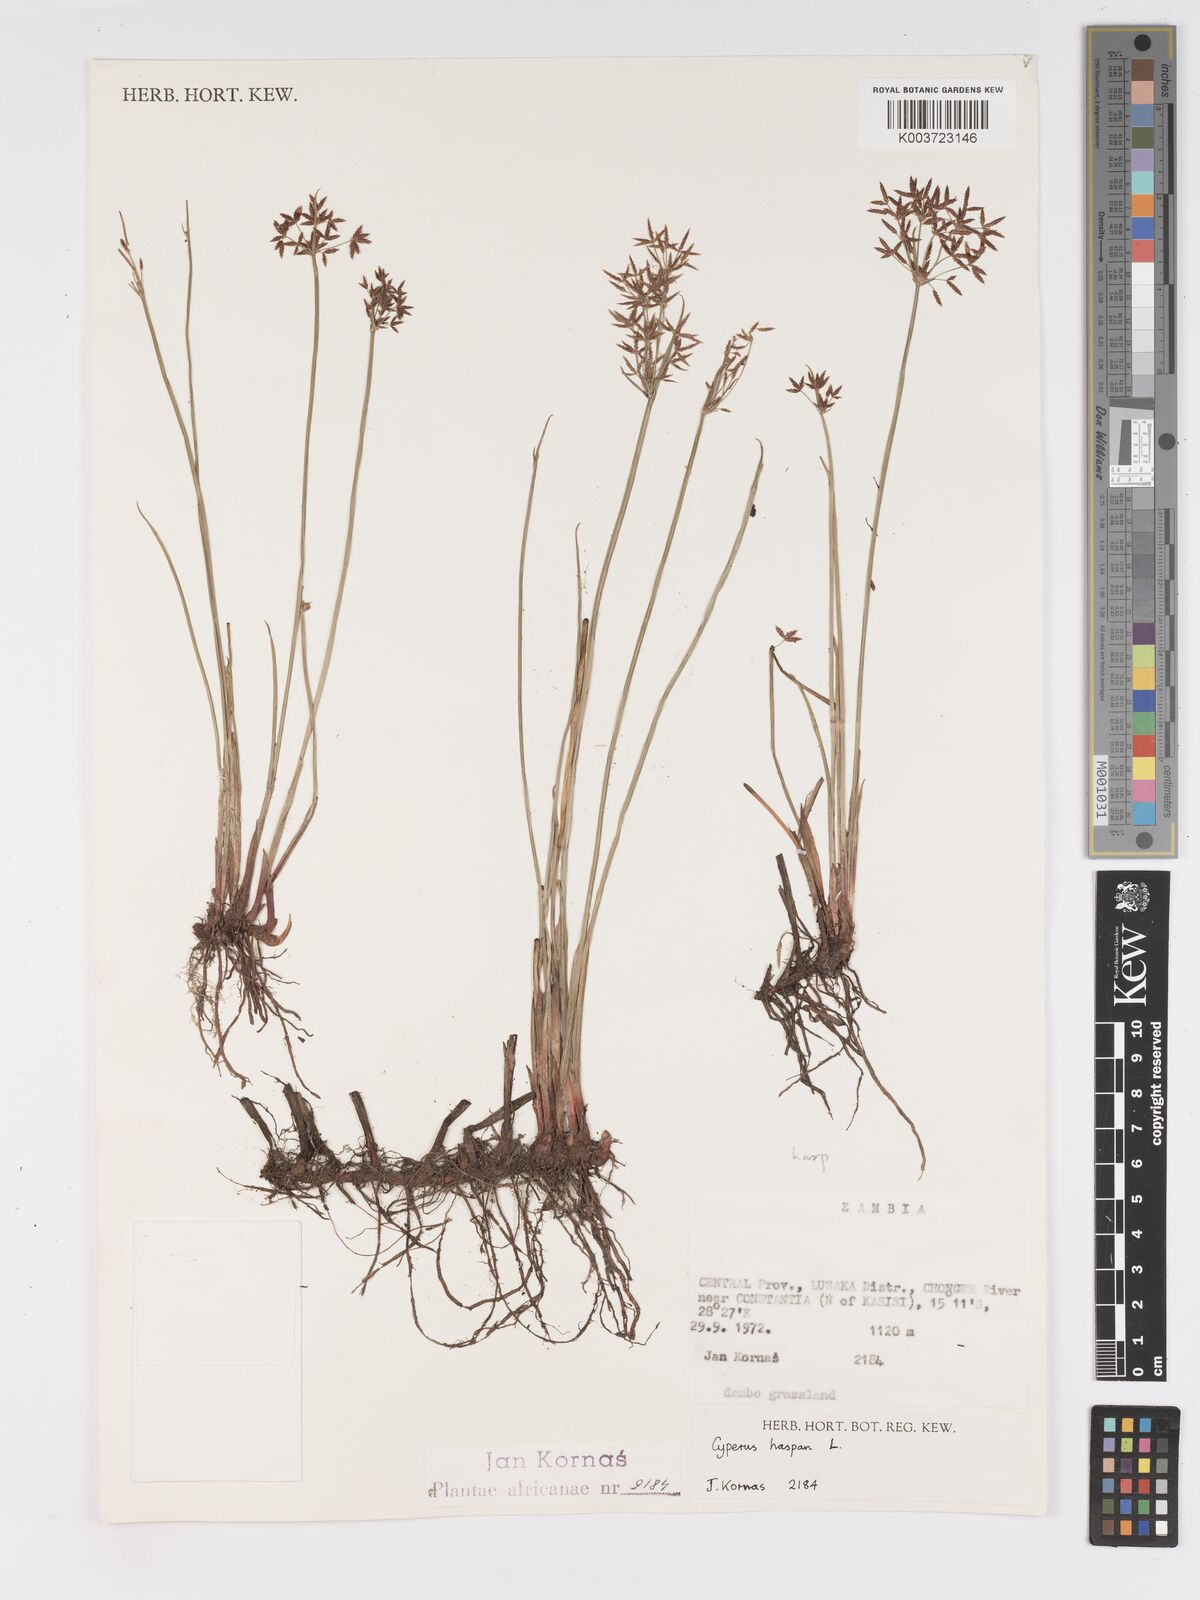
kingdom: Plantae
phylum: Tracheophyta
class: Liliopsida
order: Poales
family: Cyperaceae
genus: Cyperus
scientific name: Cyperus haspan
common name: Haspan flatsedge
